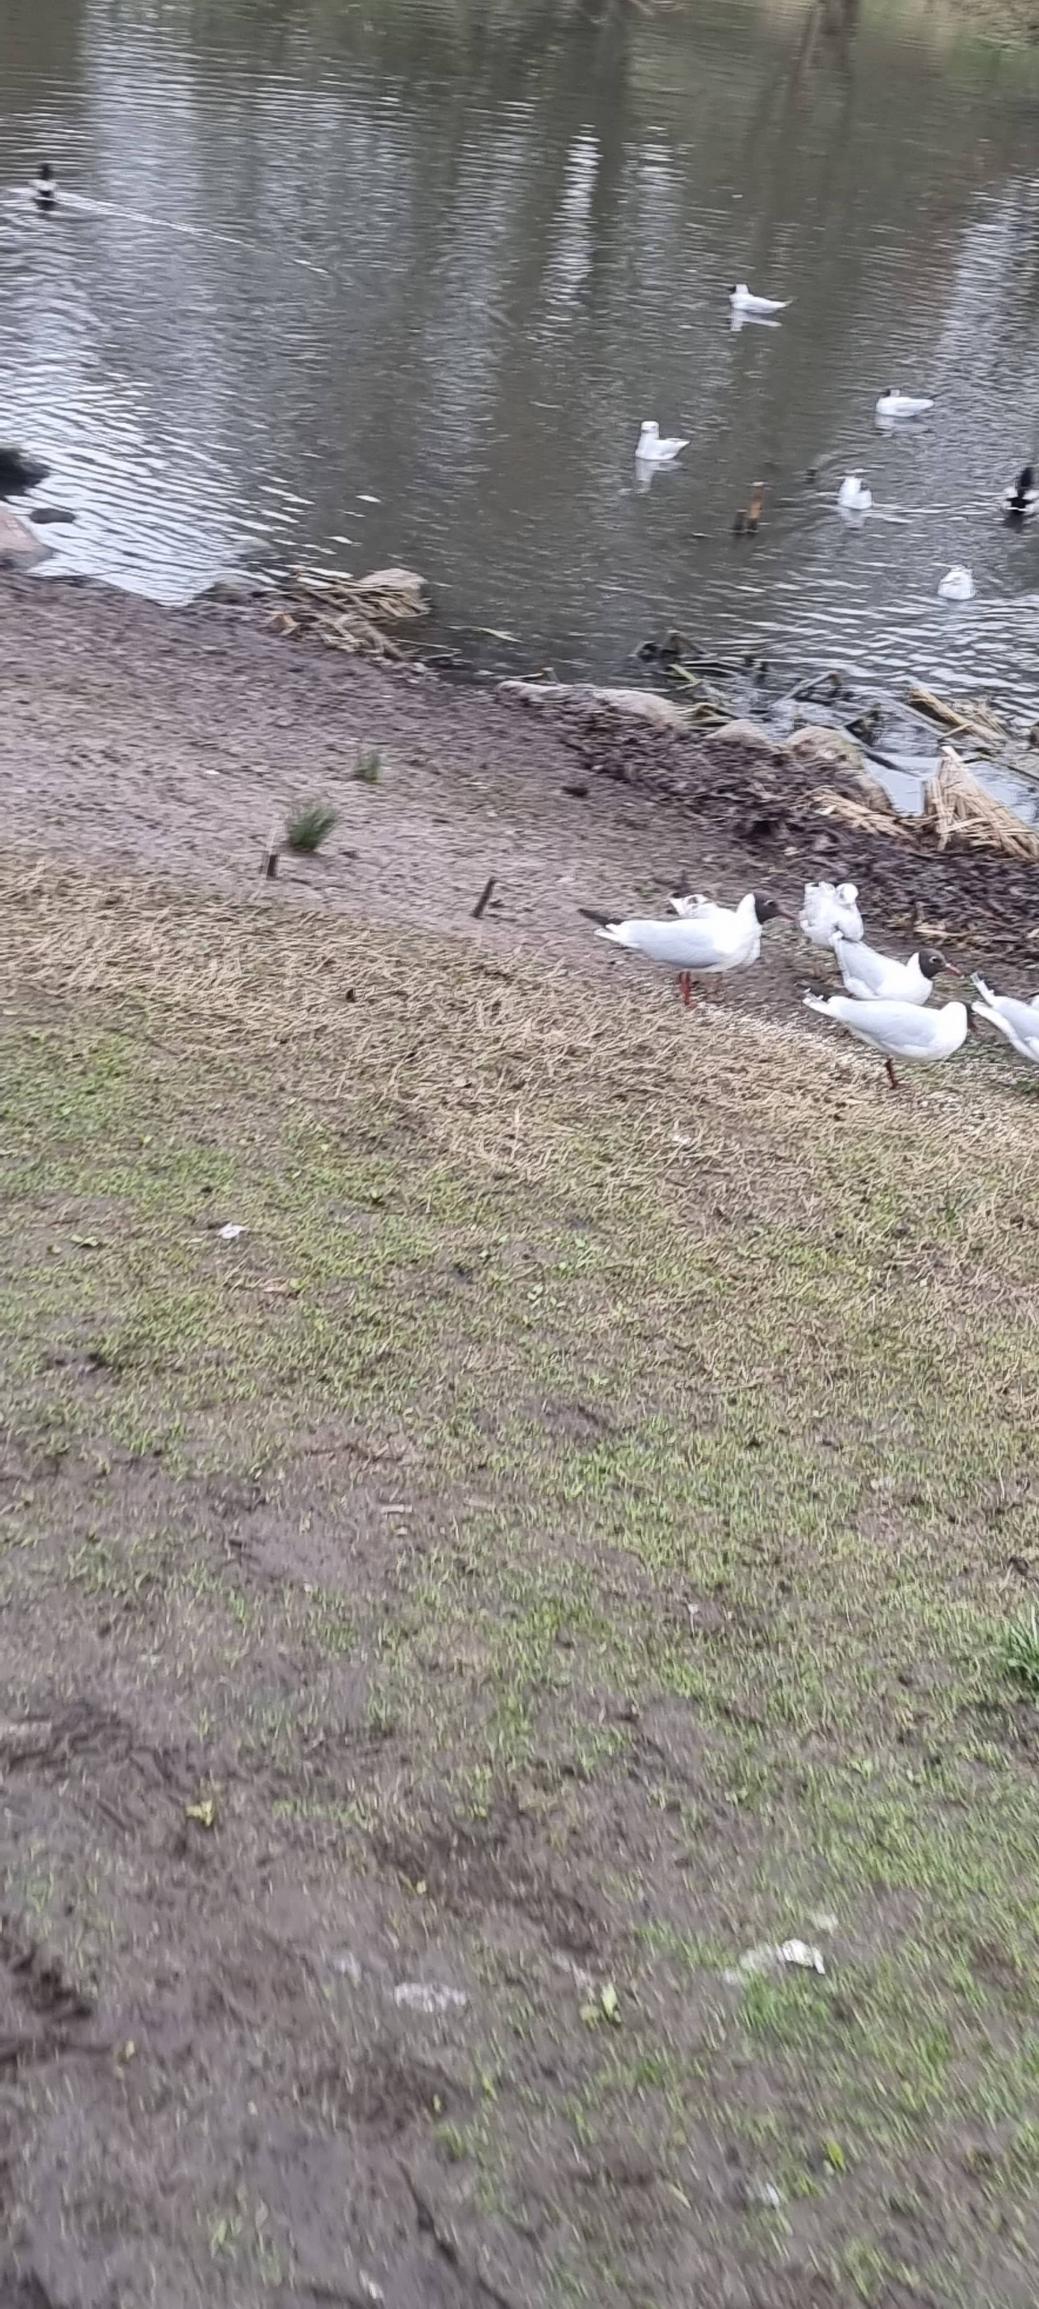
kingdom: Animalia
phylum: Chordata
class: Aves
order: Charadriiformes
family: Laridae
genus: Chroicocephalus
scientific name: Chroicocephalus ridibundus
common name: Hættemåge
